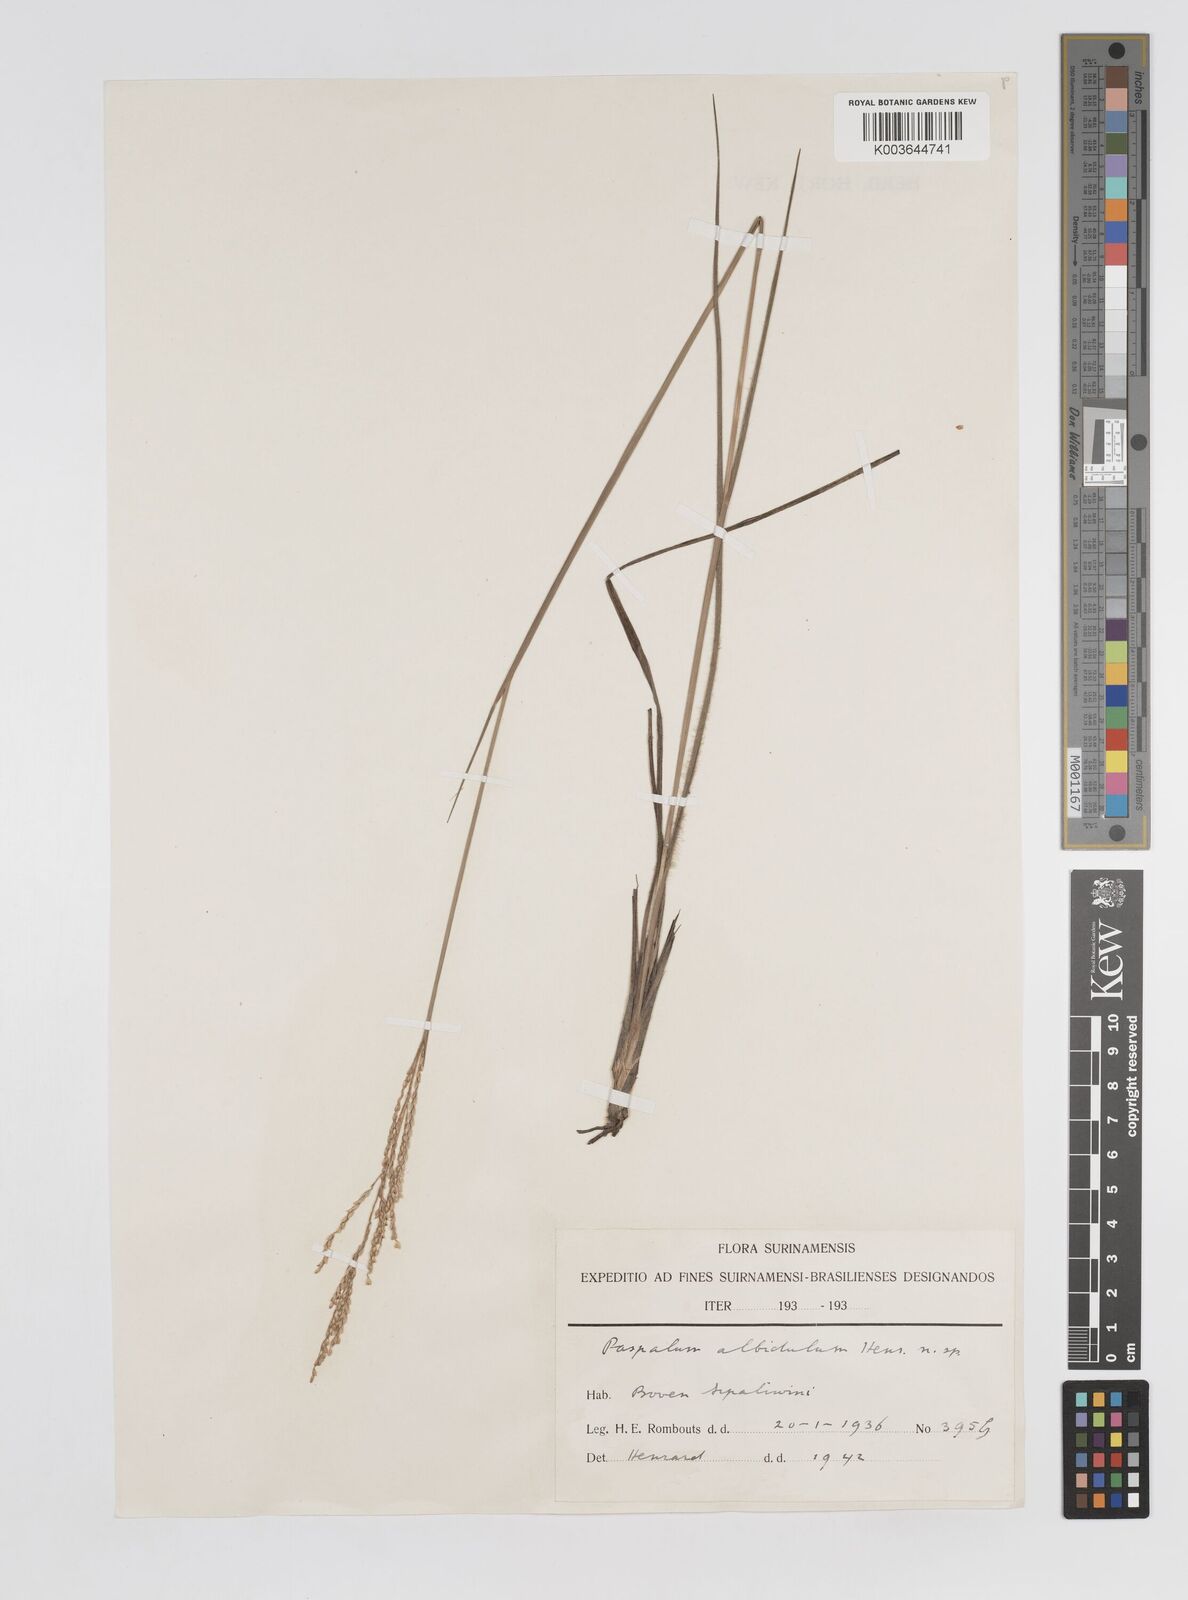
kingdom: Plantae
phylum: Tracheophyta
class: Liliopsida
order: Poales
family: Poaceae
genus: Paspalum
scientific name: Paspalum albidulum
